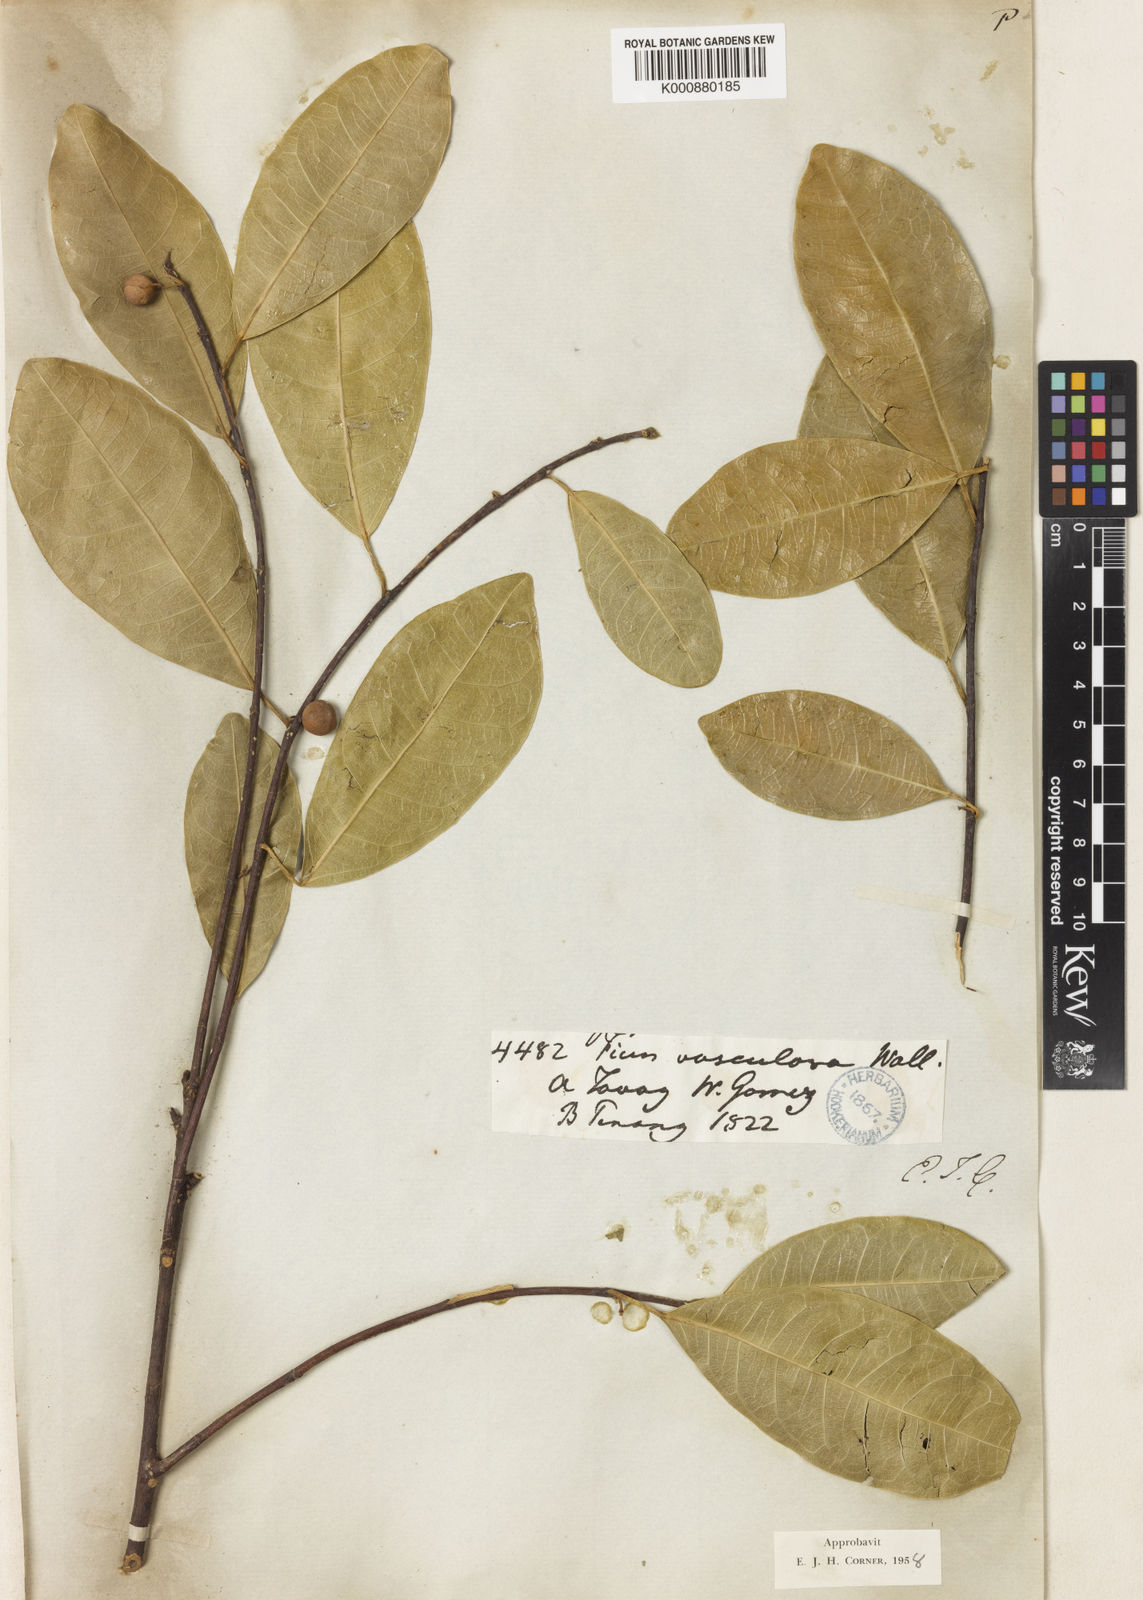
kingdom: Plantae
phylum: Tracheophyta
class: Magnoliopsida
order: Rosales
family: Moraceae
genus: Ficus
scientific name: Ficus vasculosa
